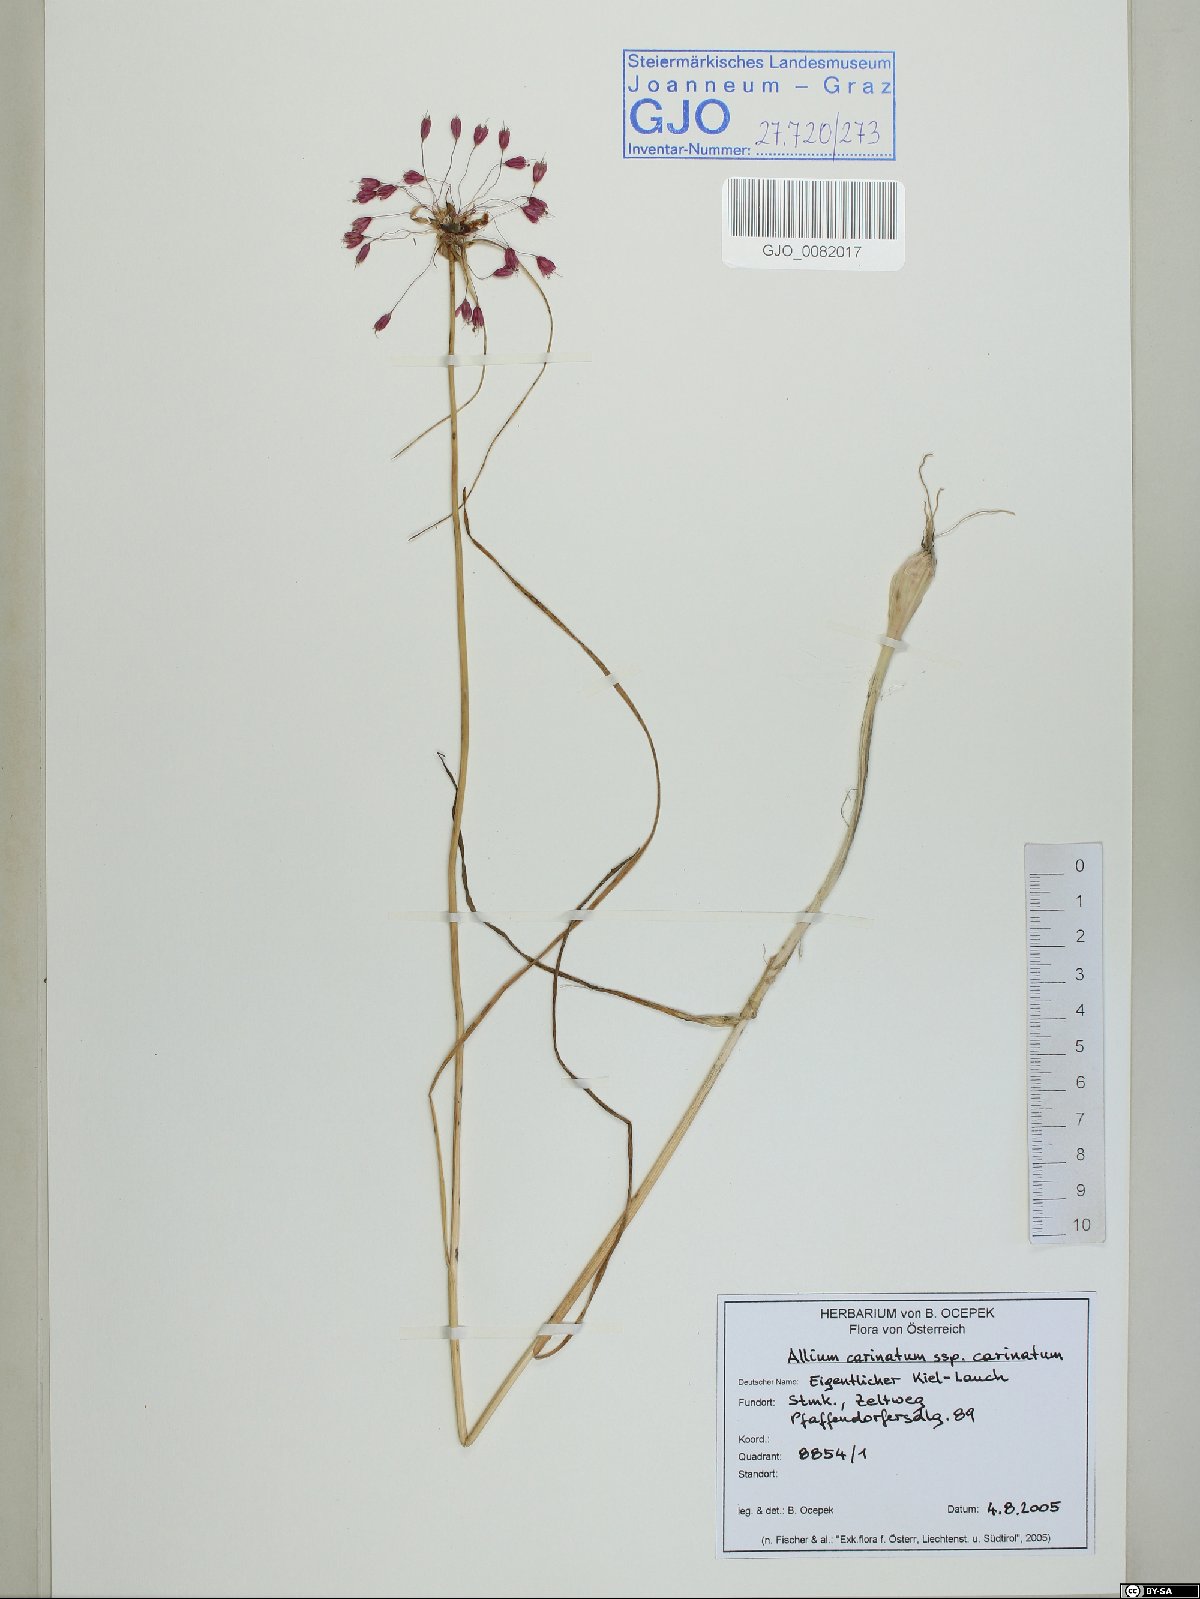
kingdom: Plantae
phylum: Tracheophyta
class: Liliopsida
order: Asparagales
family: Amaryllidaceae
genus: Allium
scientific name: Allium carinatum
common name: Keeled garlic
